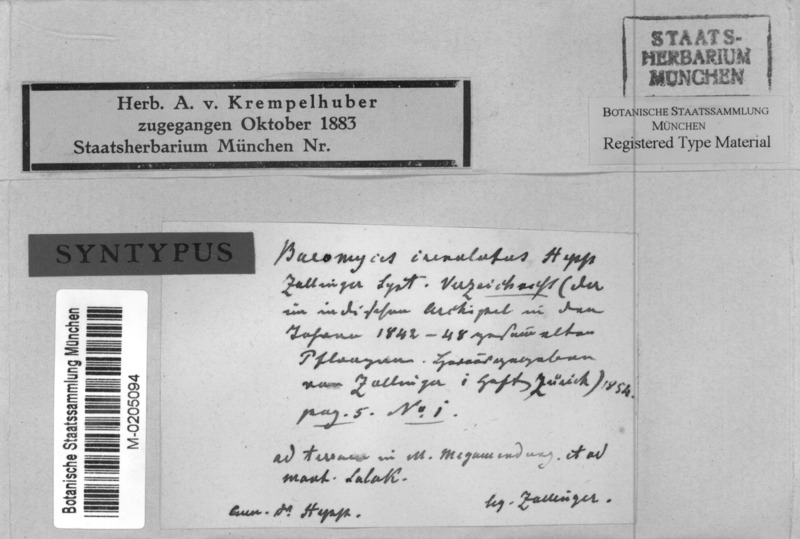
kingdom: Fungi
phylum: Ascomycota
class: Lecanoromycetes
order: Baeomycetales
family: Baeomycetaceae
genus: Baeomyces
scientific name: Baeomyces crenulatus
